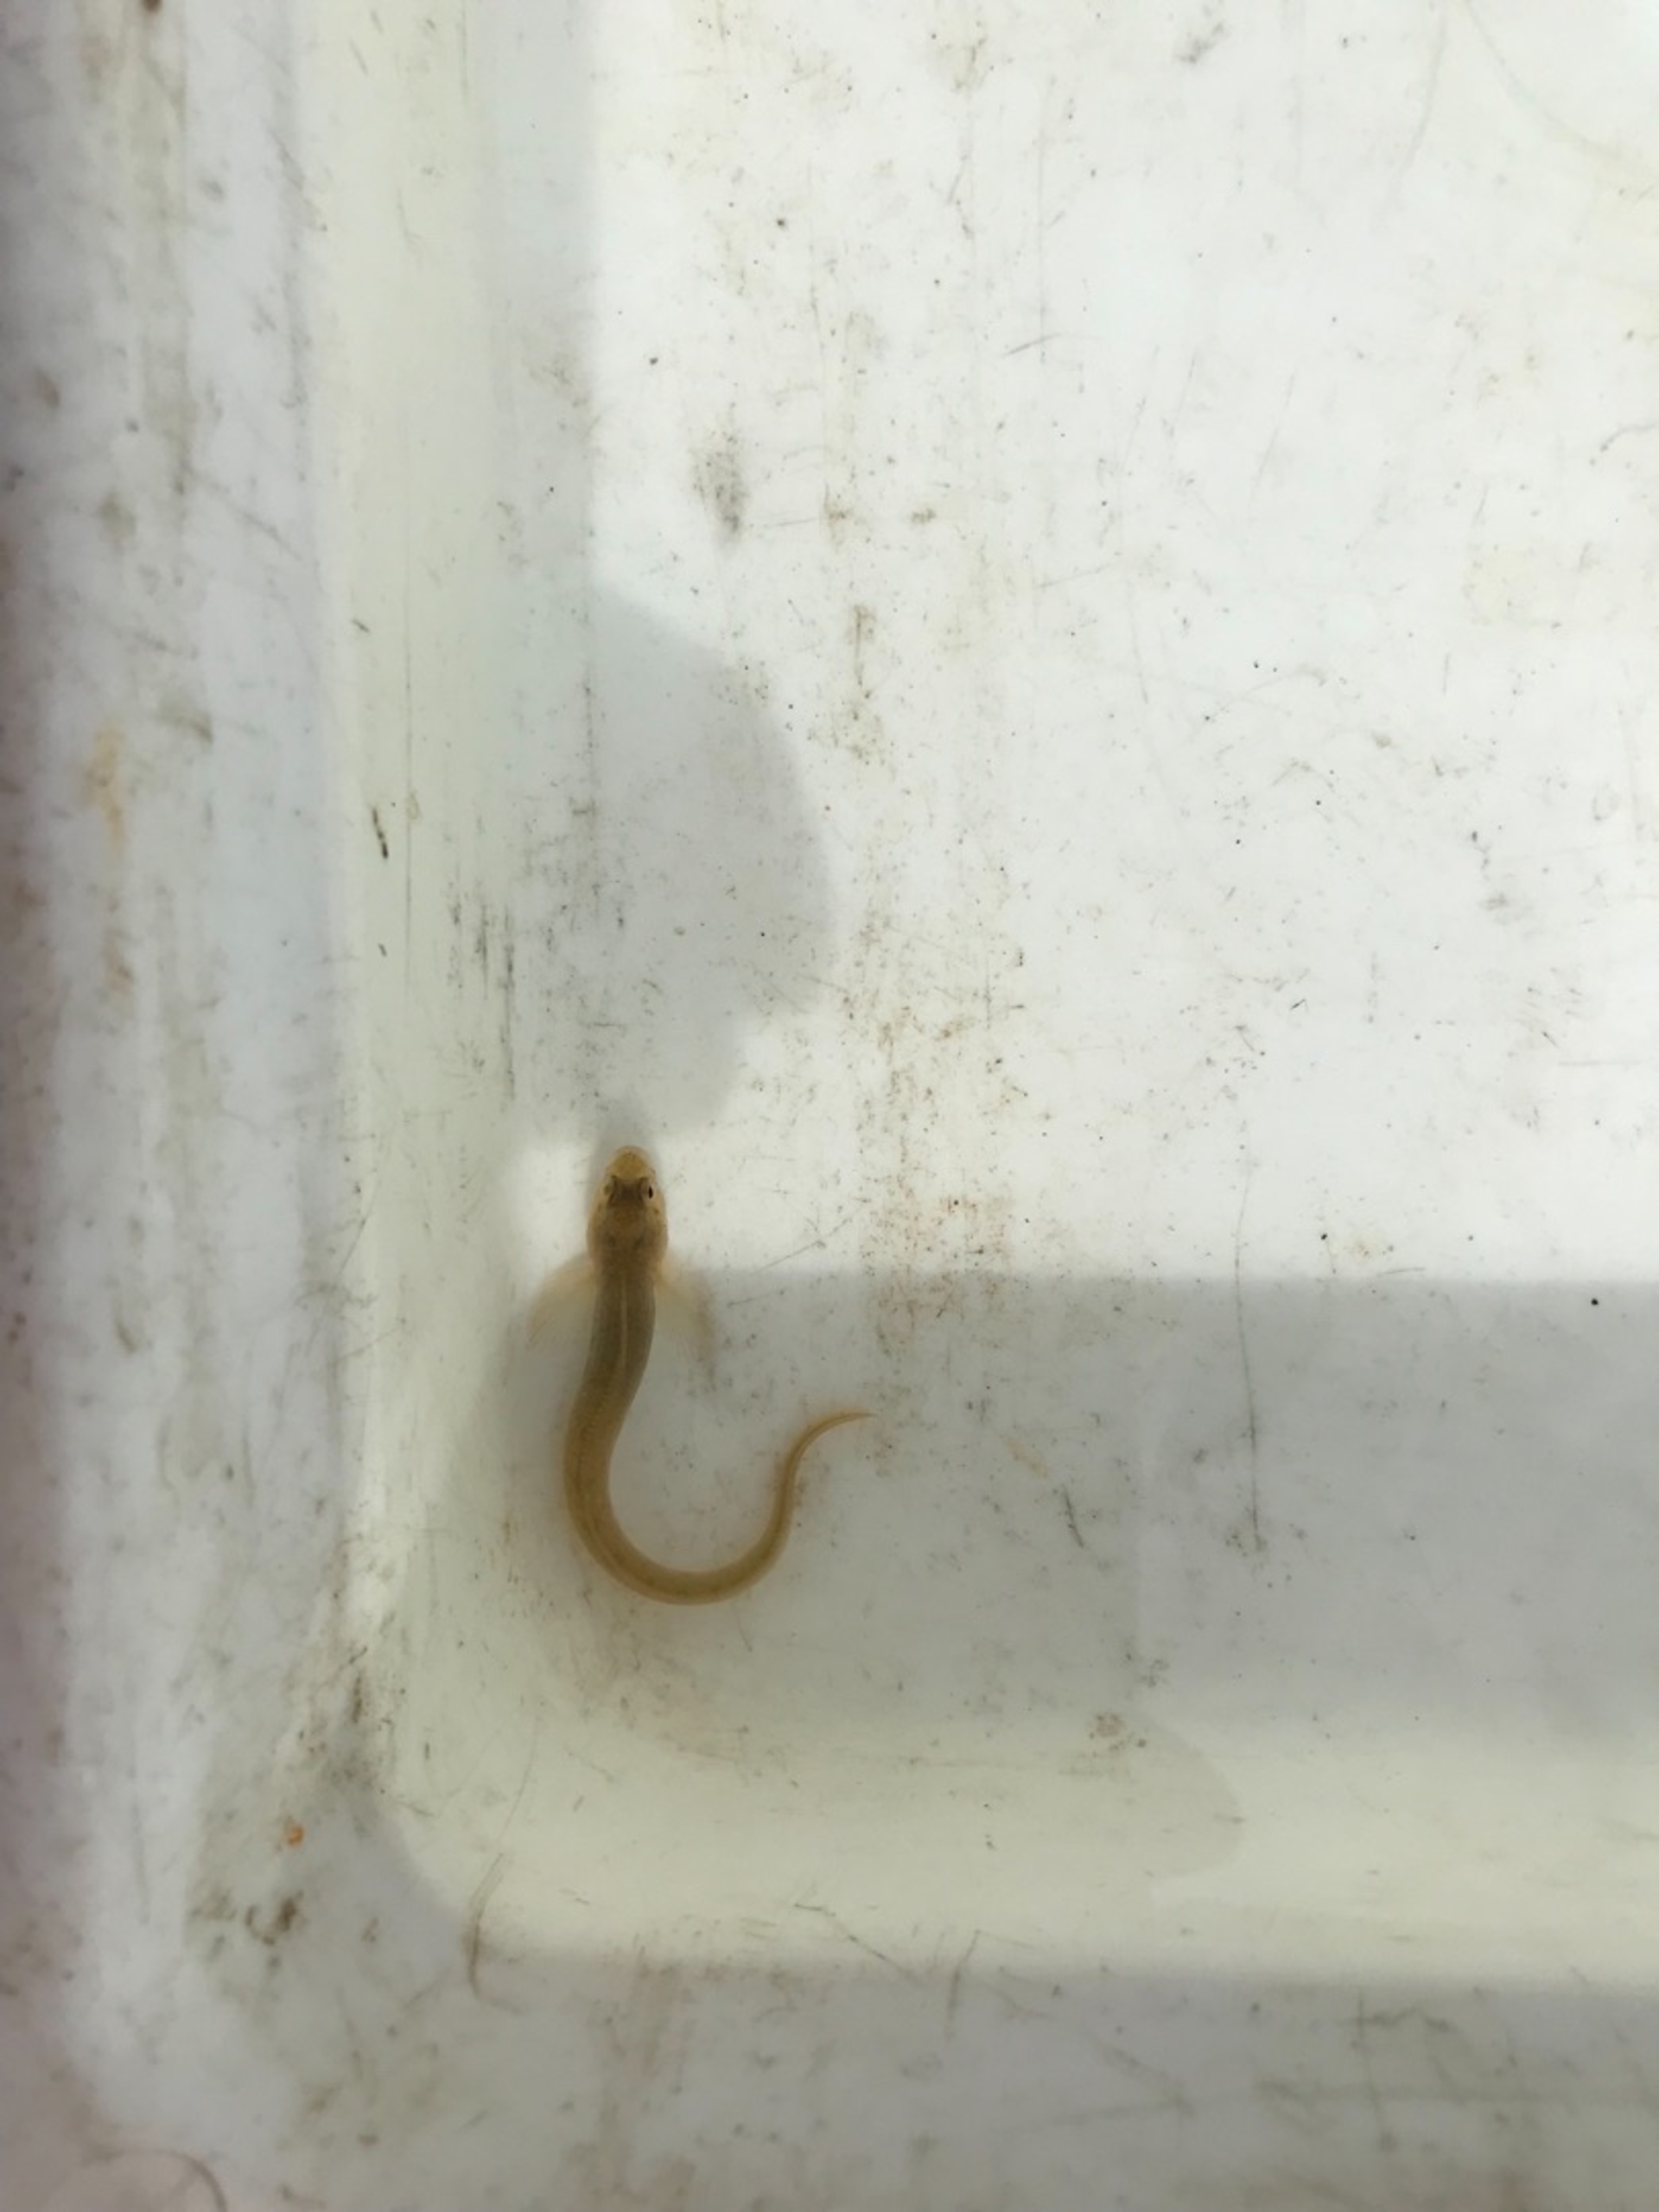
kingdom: Animalia
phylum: Chordata
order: Perciformes
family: Zoarcidae
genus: Zoarces
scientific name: Zoarces viviparus
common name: Ålekvabbe
